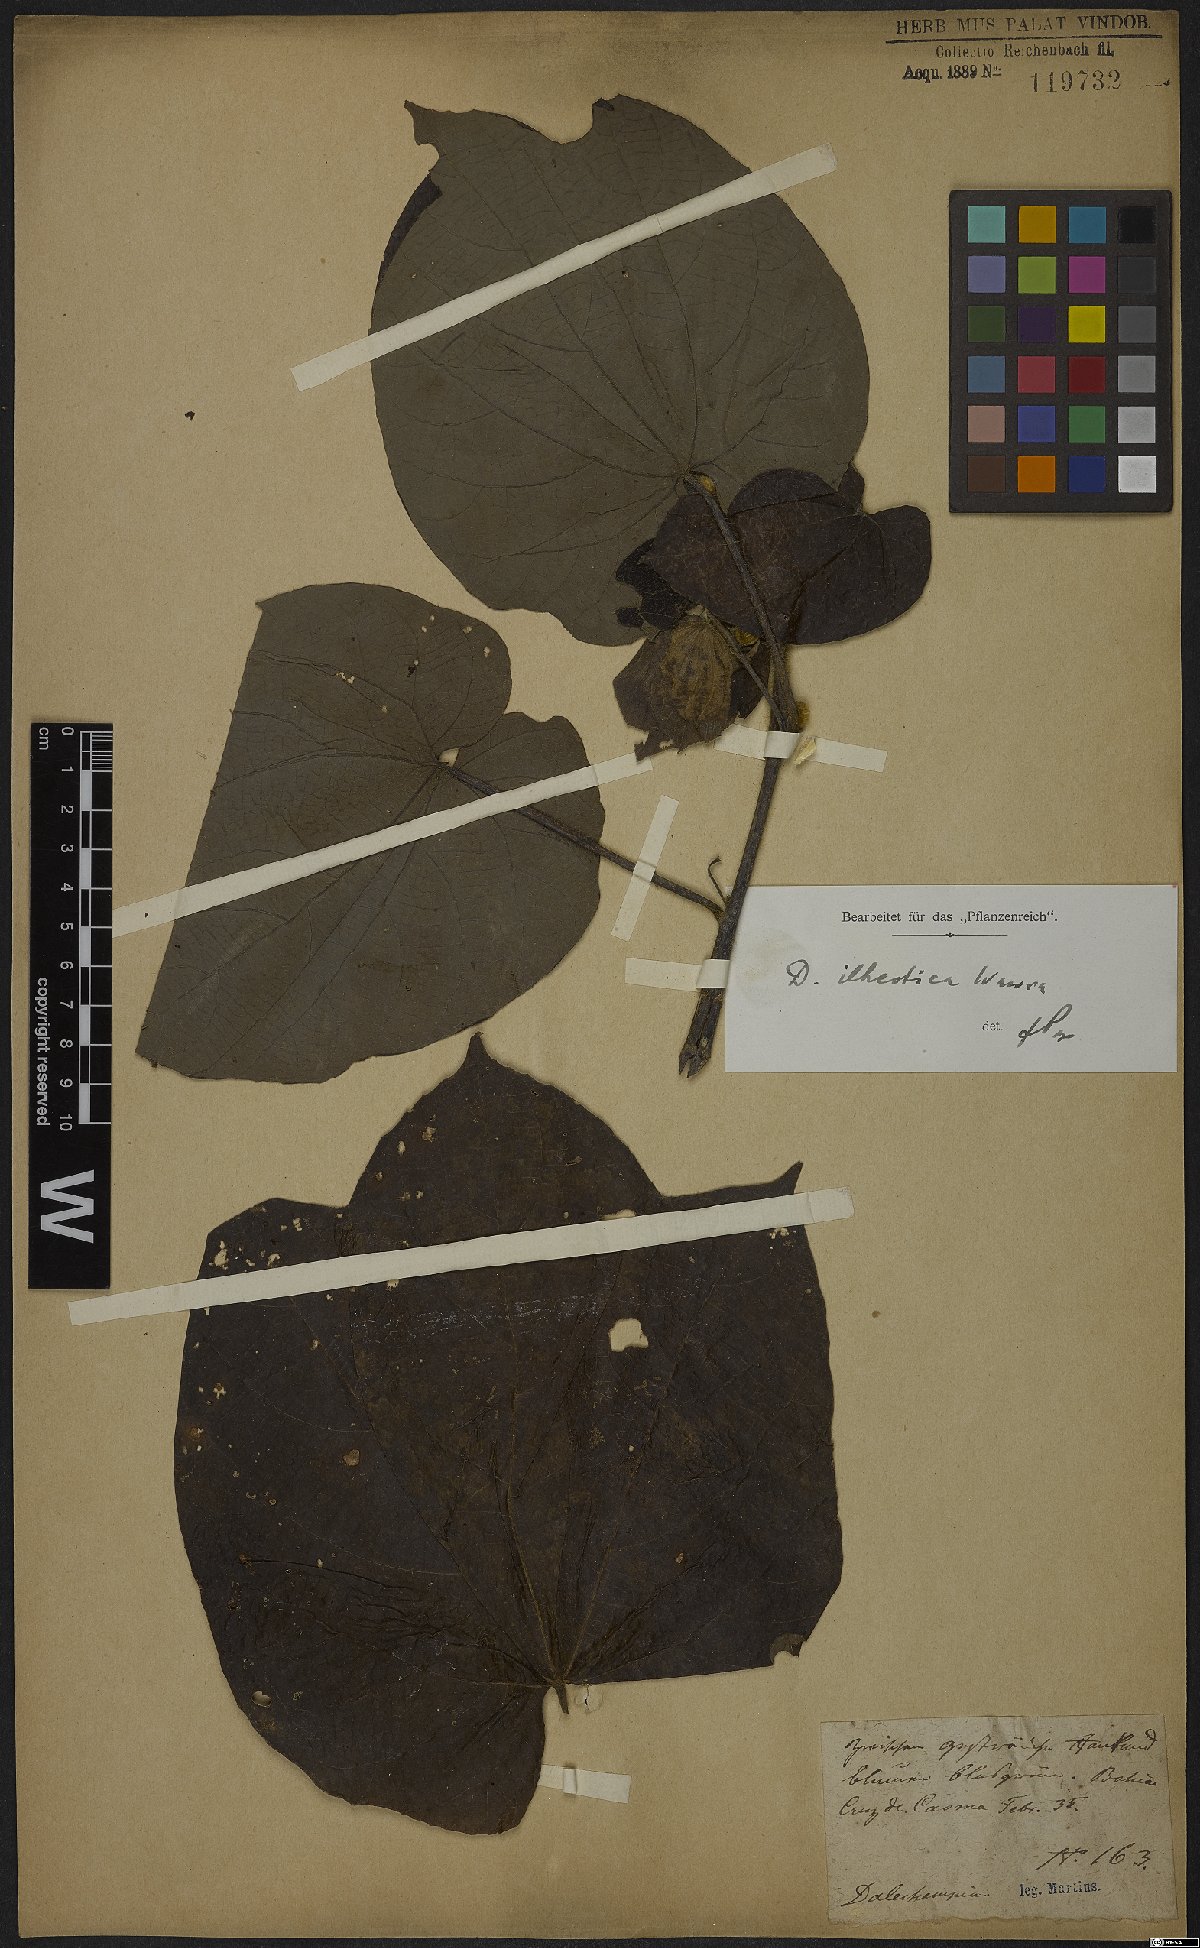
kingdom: Plantae
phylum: Tracheophyta
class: Magnoliopsida
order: Malpighiales
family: Euphorbiaceae
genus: Dalechampia
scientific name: Dalechampia ilheotica
